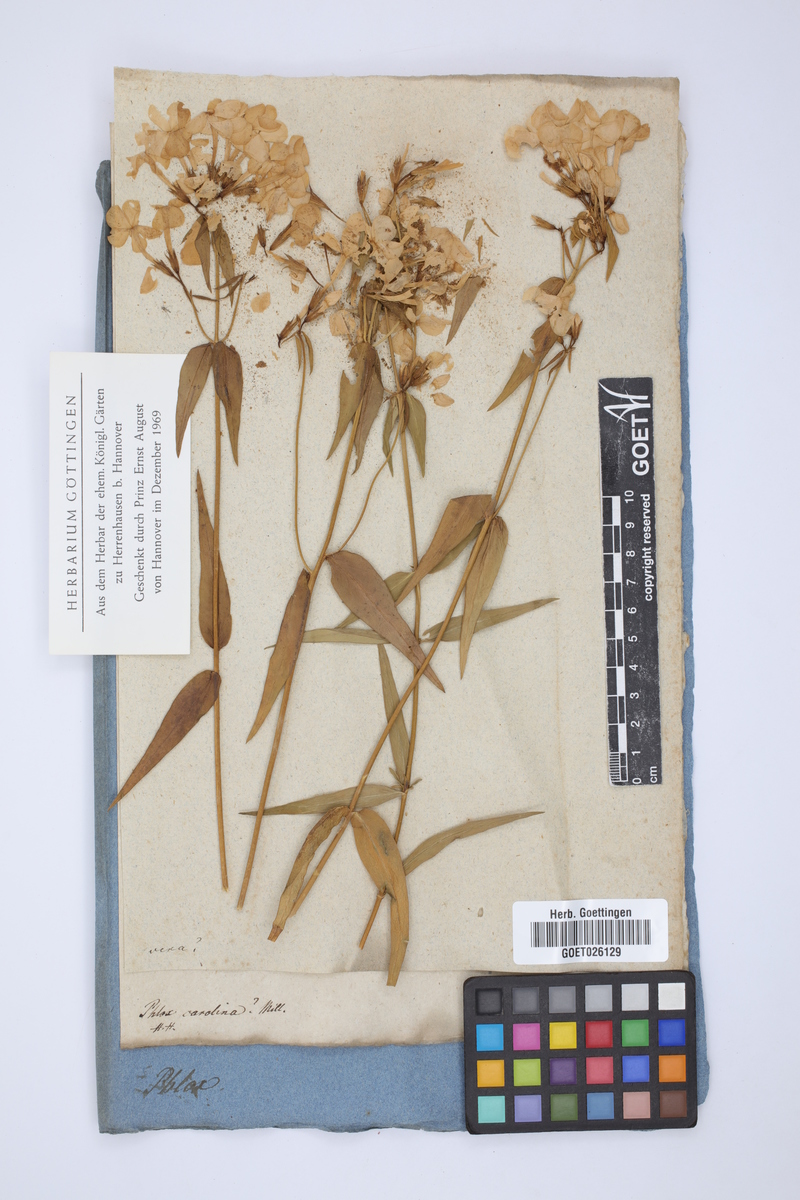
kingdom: Plantae
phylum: Tracheophyta
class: Magnoliopsida
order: Ericales
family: Polemoniaceae
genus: Phlox
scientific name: Phlox carolina
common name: Thick-leaf phlox
